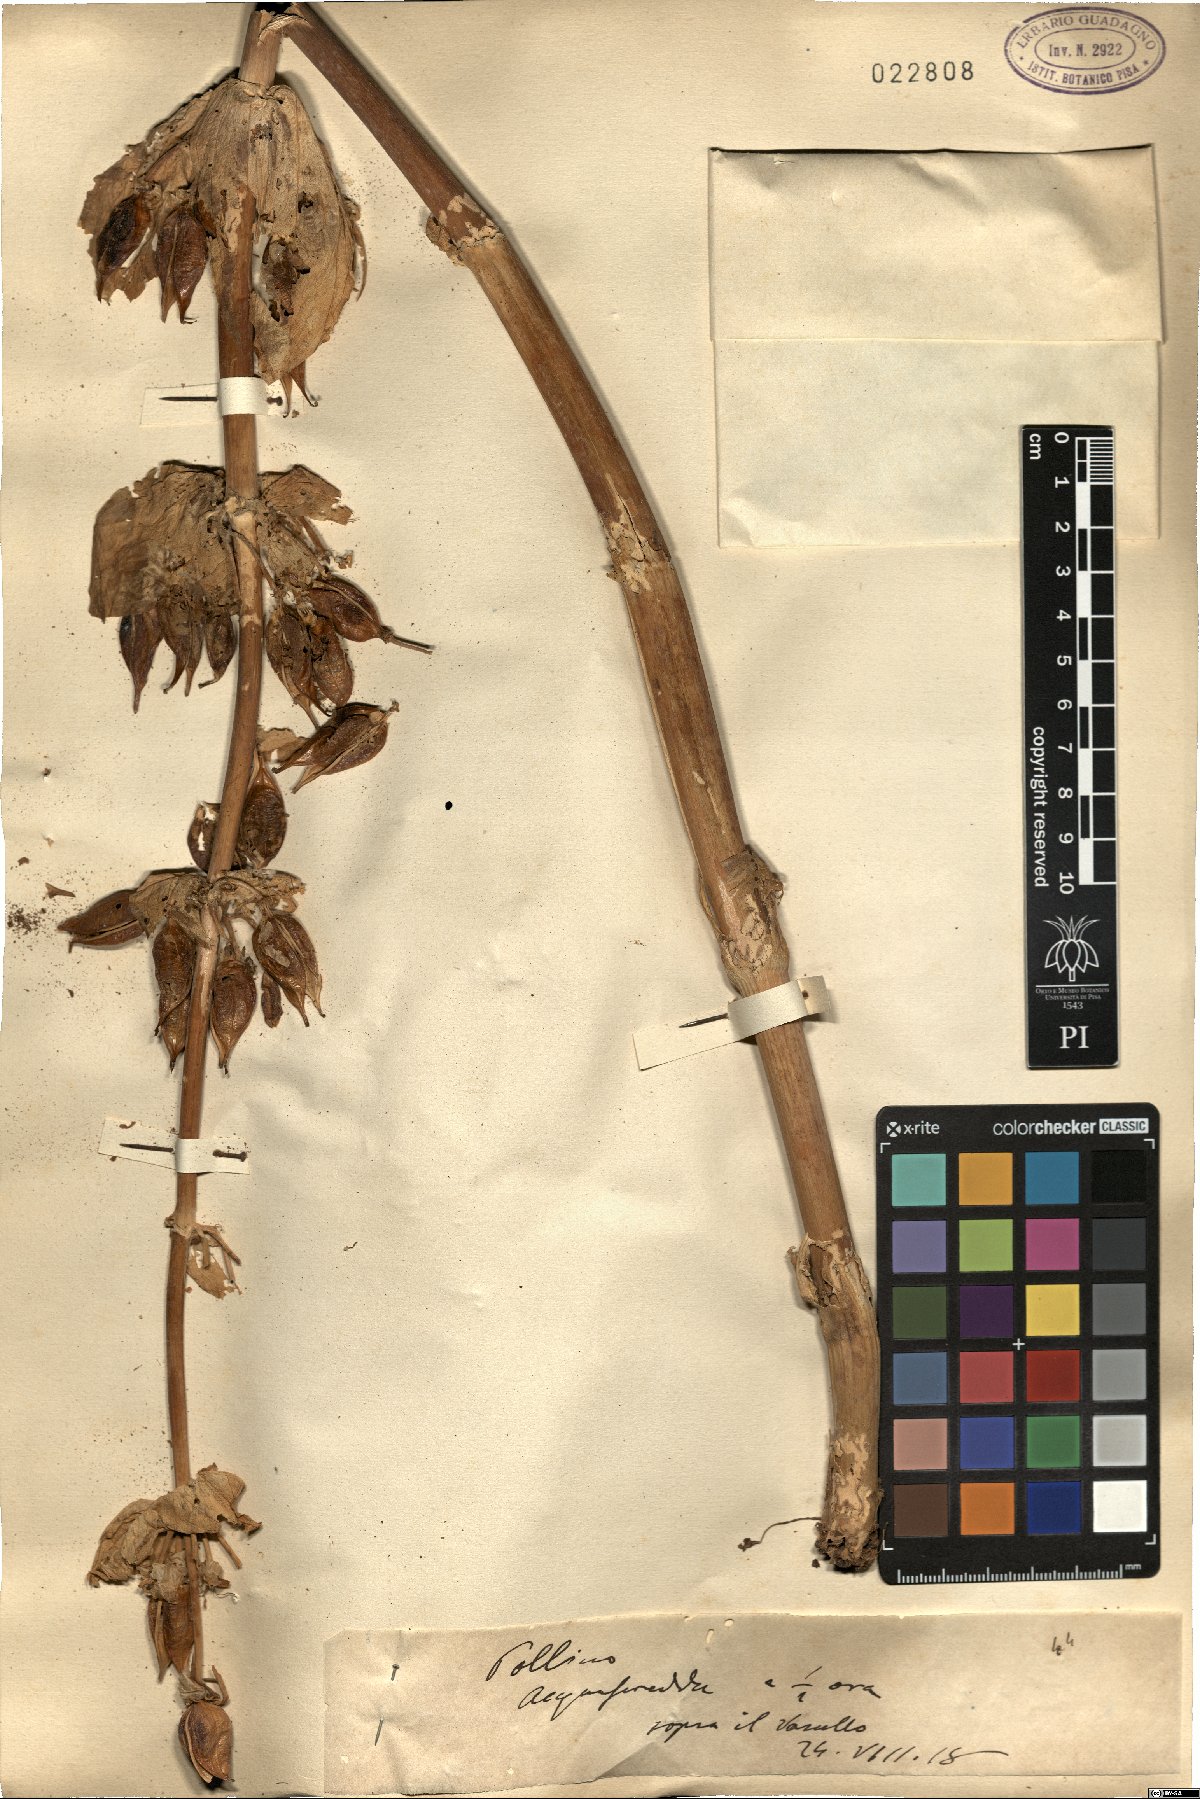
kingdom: Plantae
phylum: Tracheophyta
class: Magnoliopsida
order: Gentianales
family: Gentianaceae
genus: Gentiana
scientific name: Gentiana
